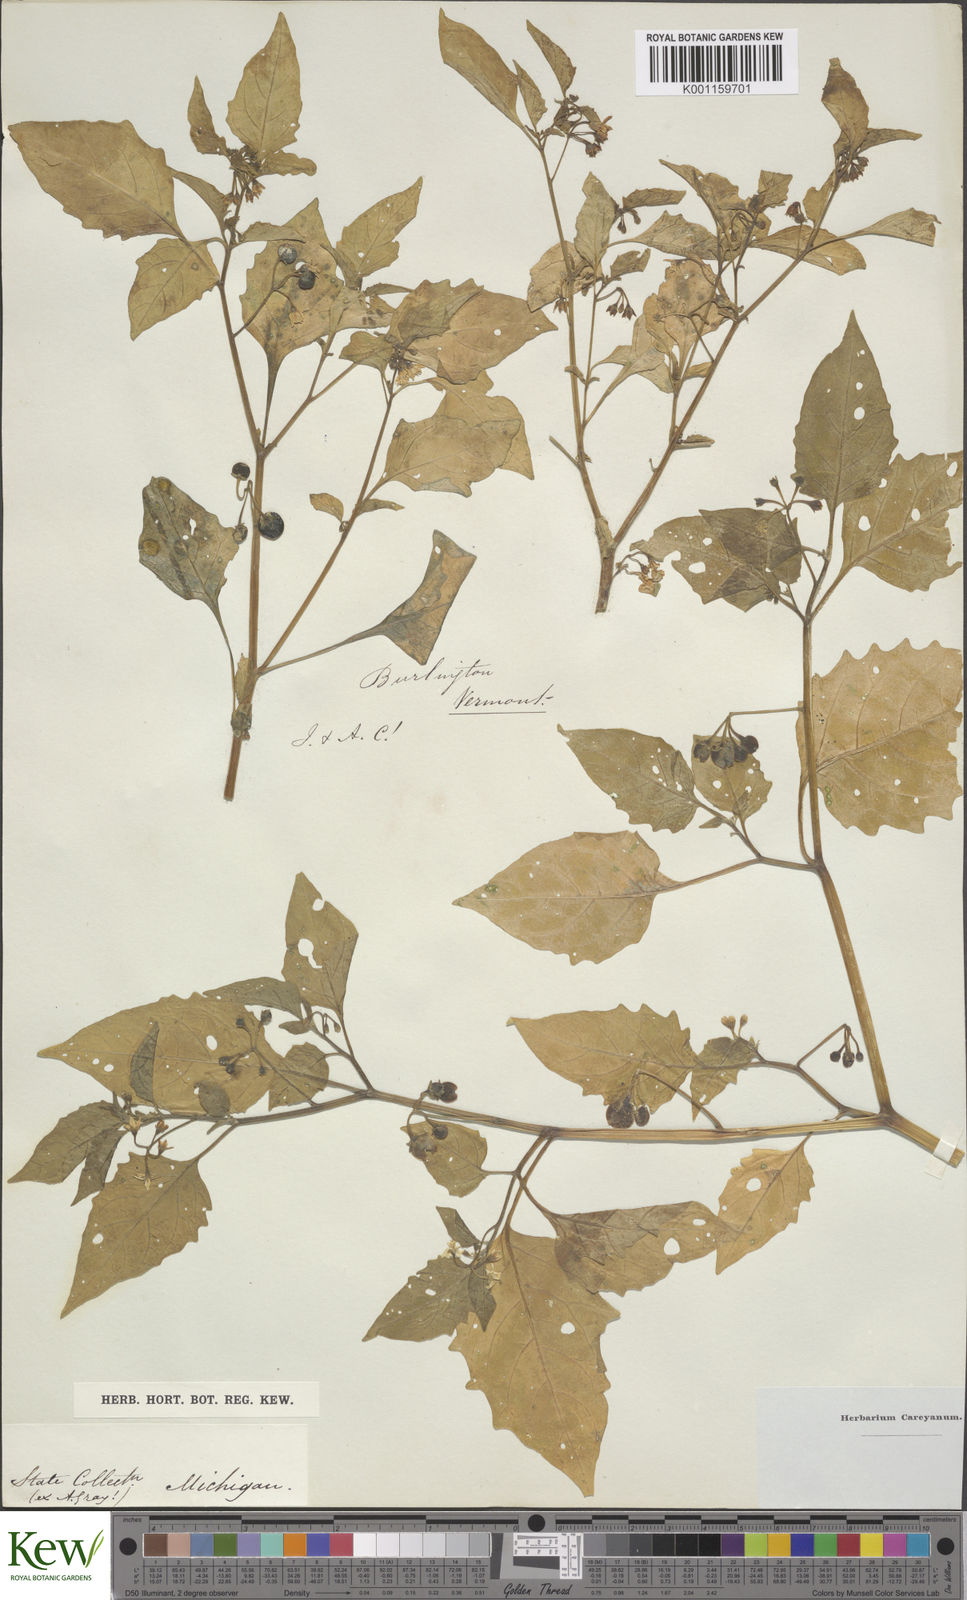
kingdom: Plantae
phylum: Tracheophyta
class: Magnoliopsida
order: Solanales
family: Solanaceae
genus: Solanum
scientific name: Solanum emulans
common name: Eastern black nightshade
